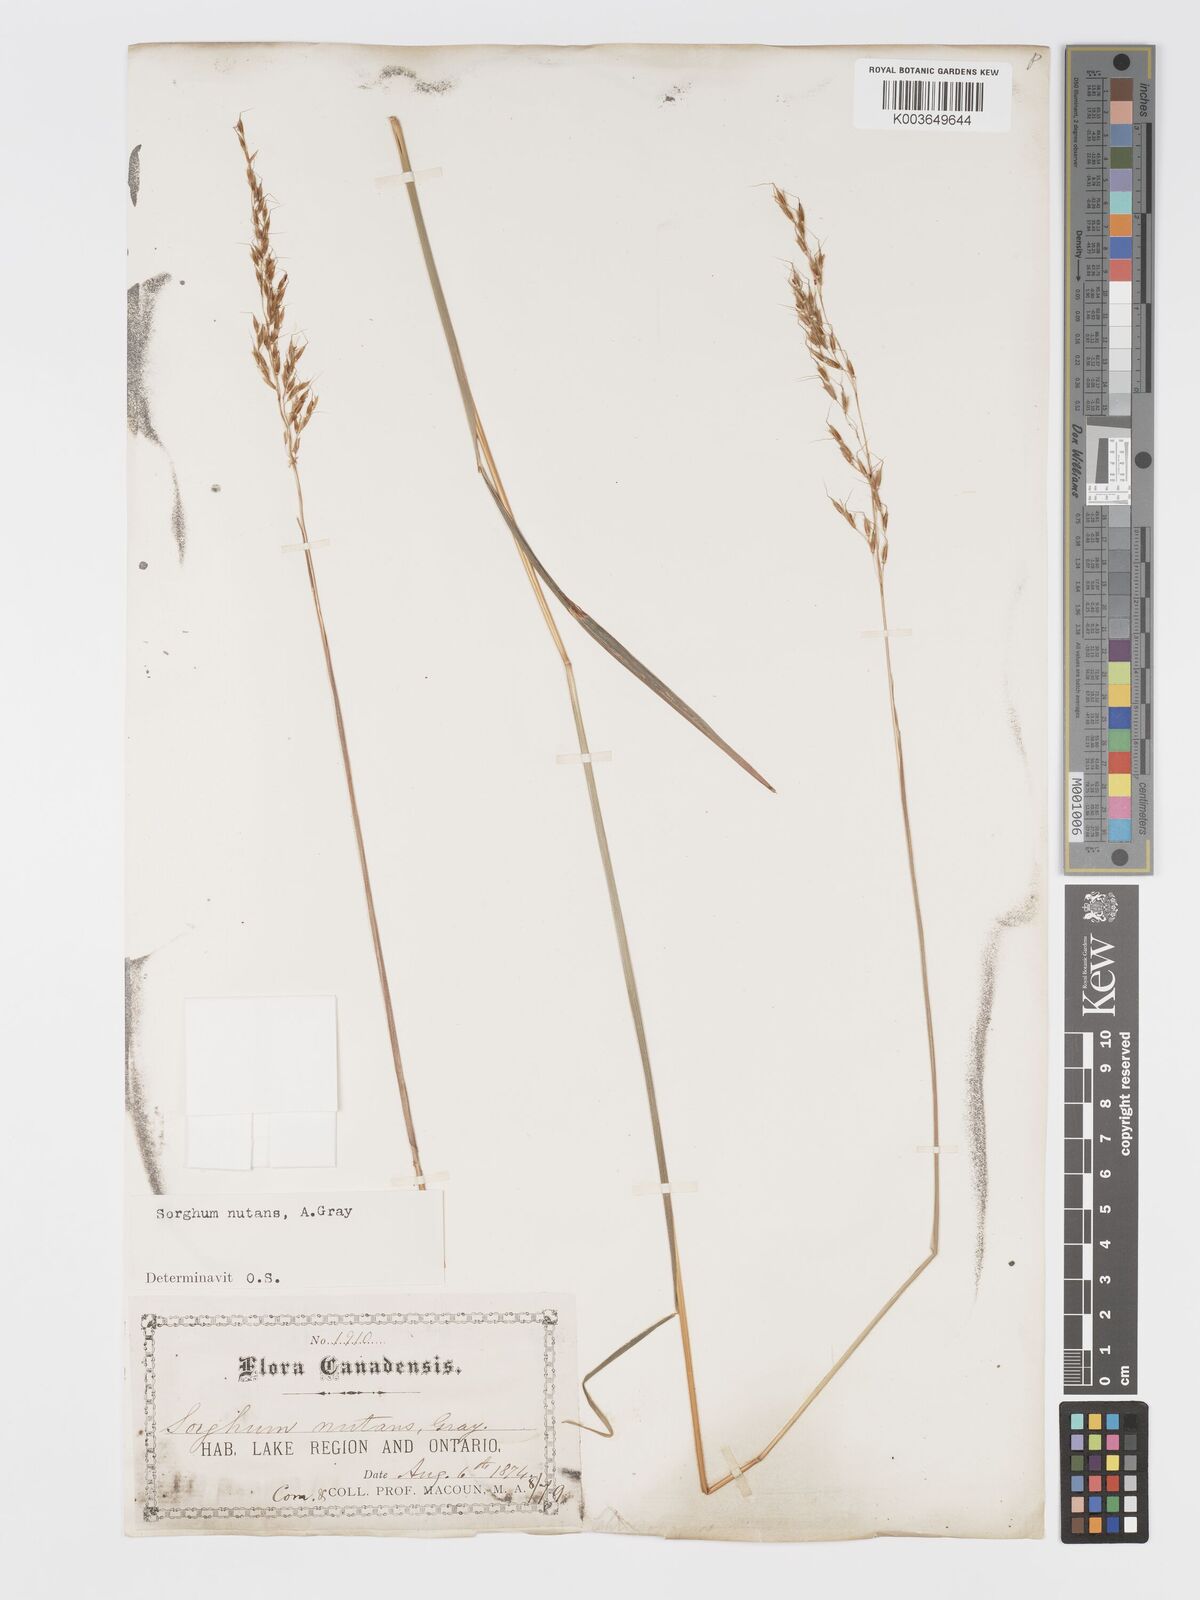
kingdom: Plantae
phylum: Tracheophyta
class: Liliopsida
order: Poales
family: Poaceae
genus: Sorghastrum
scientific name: Sorghastrum nutans
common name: Indian grass
